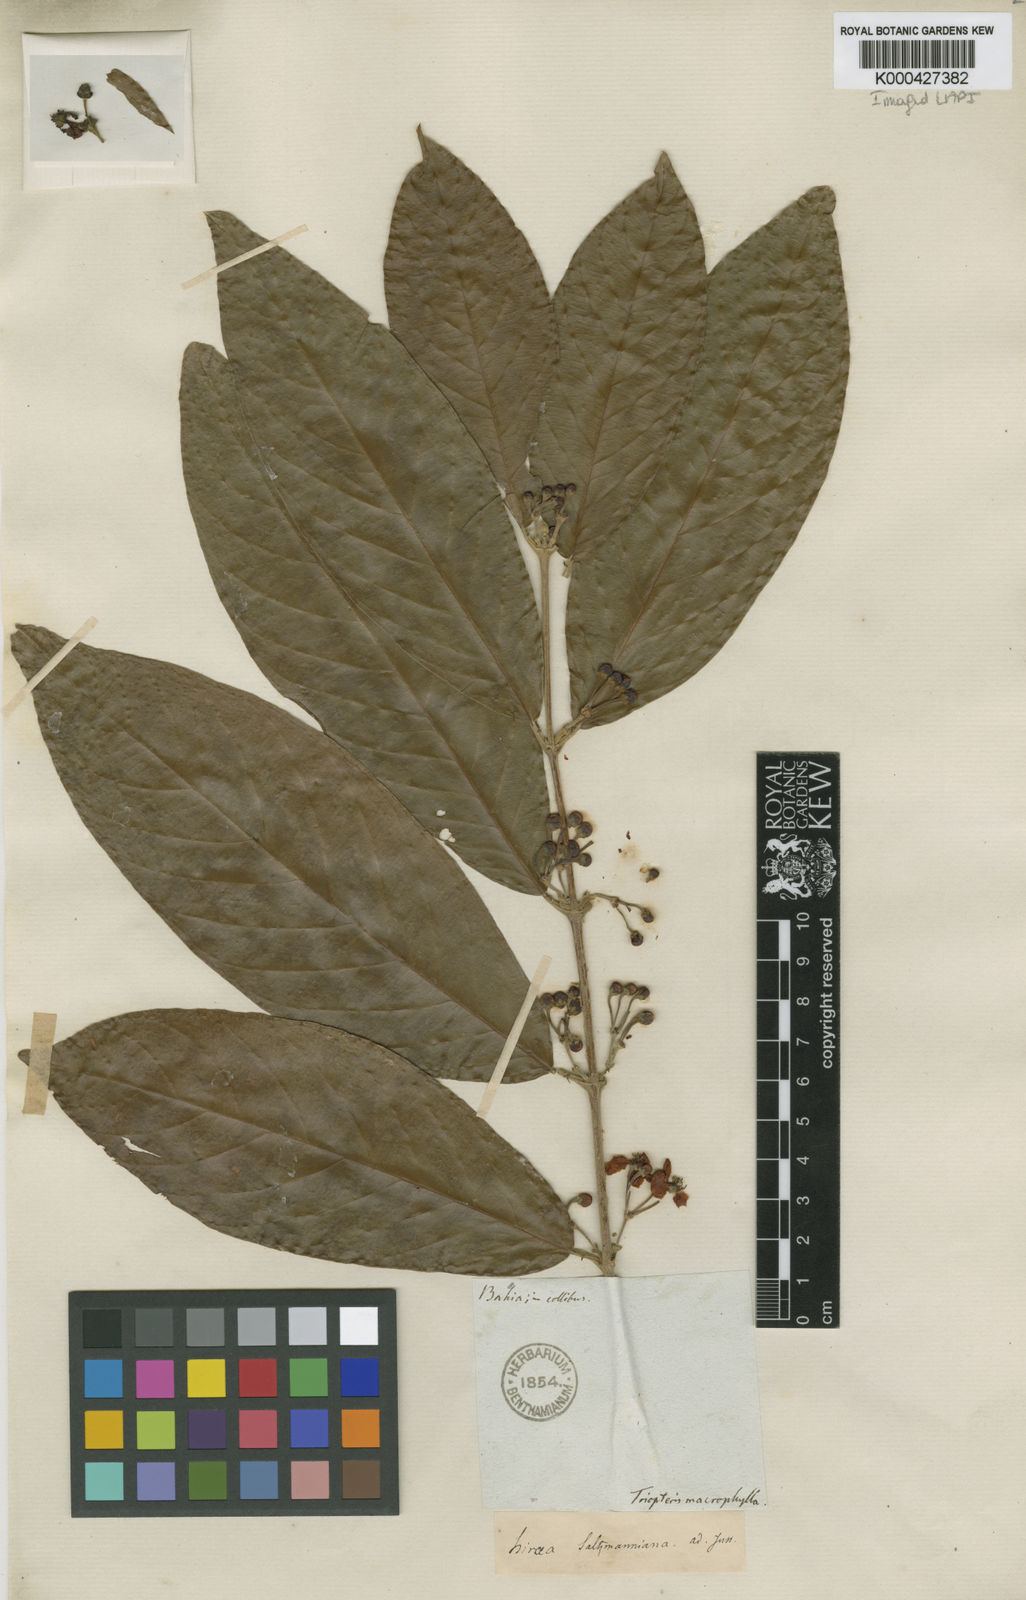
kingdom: Plantae
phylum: Tracheophyta
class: Magnoliopsida
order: Malpighiales
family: Malpighiaceae
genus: Hiraea
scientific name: Hiraea
